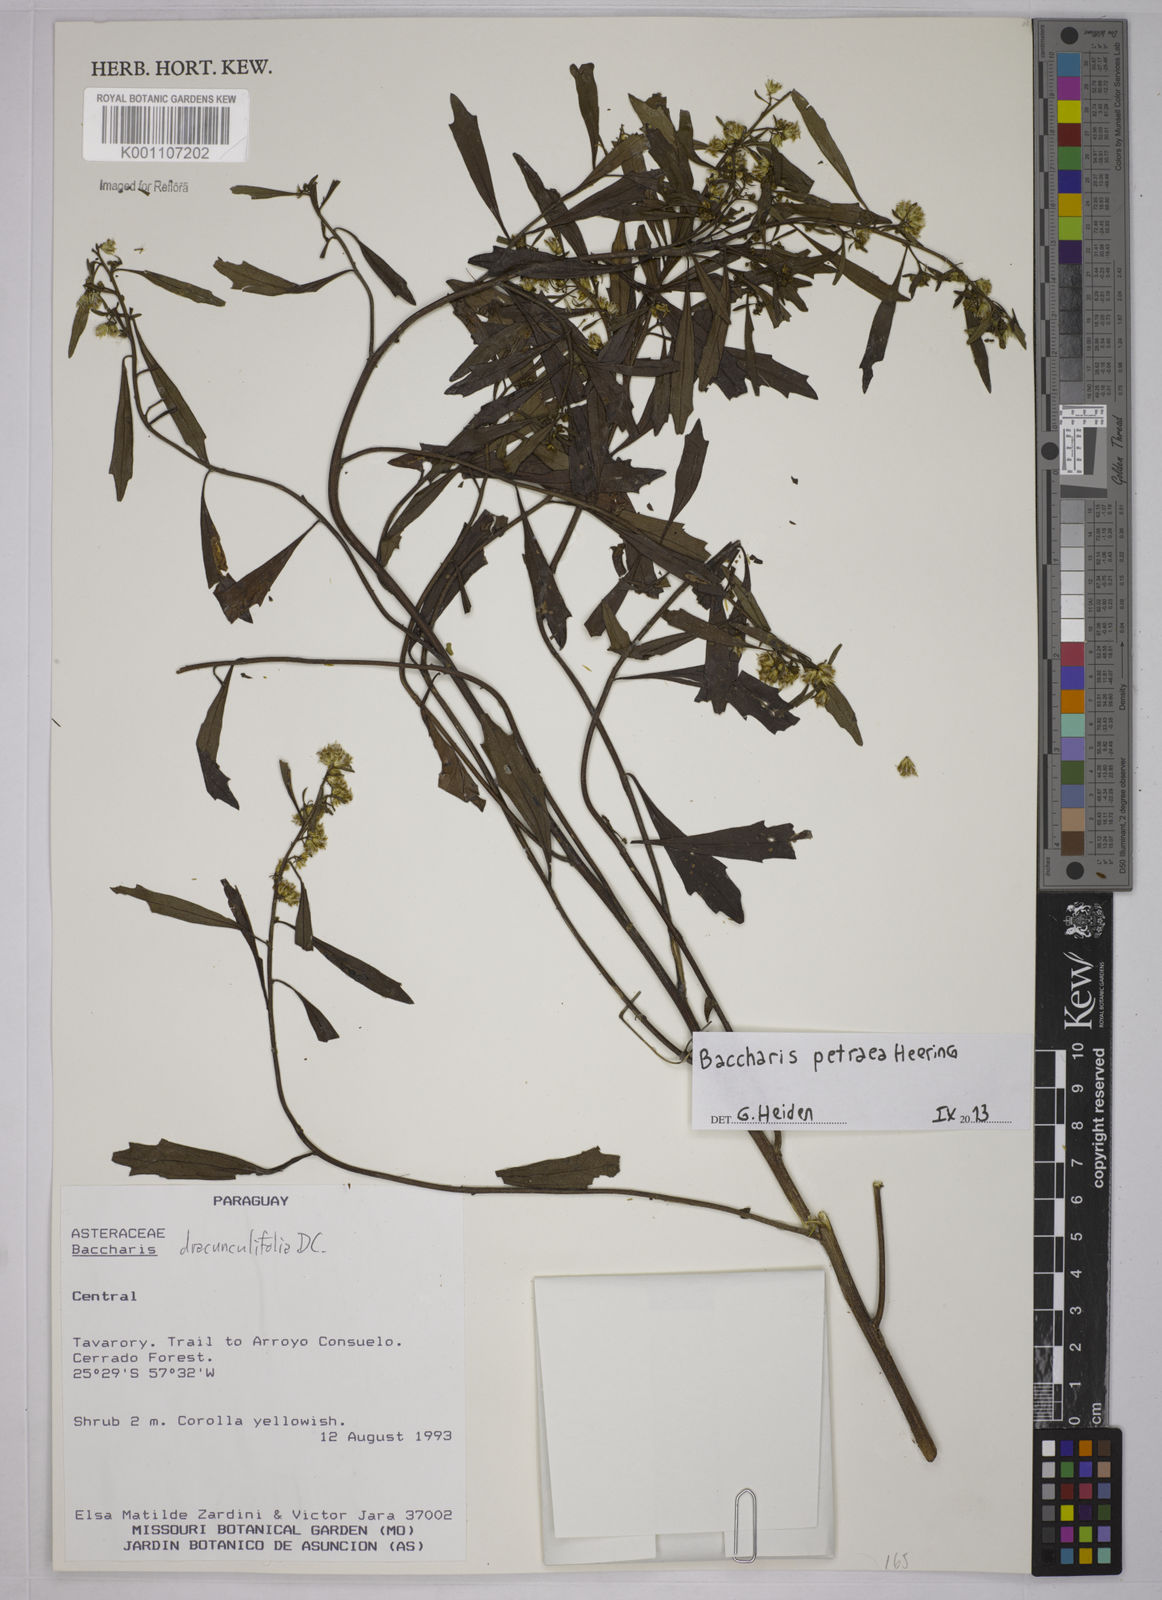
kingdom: Plantae
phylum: Tracheophyta
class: Magnoliopsida
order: Asterales
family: Asteraceae
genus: Baccharis
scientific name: Baccharis petraea
